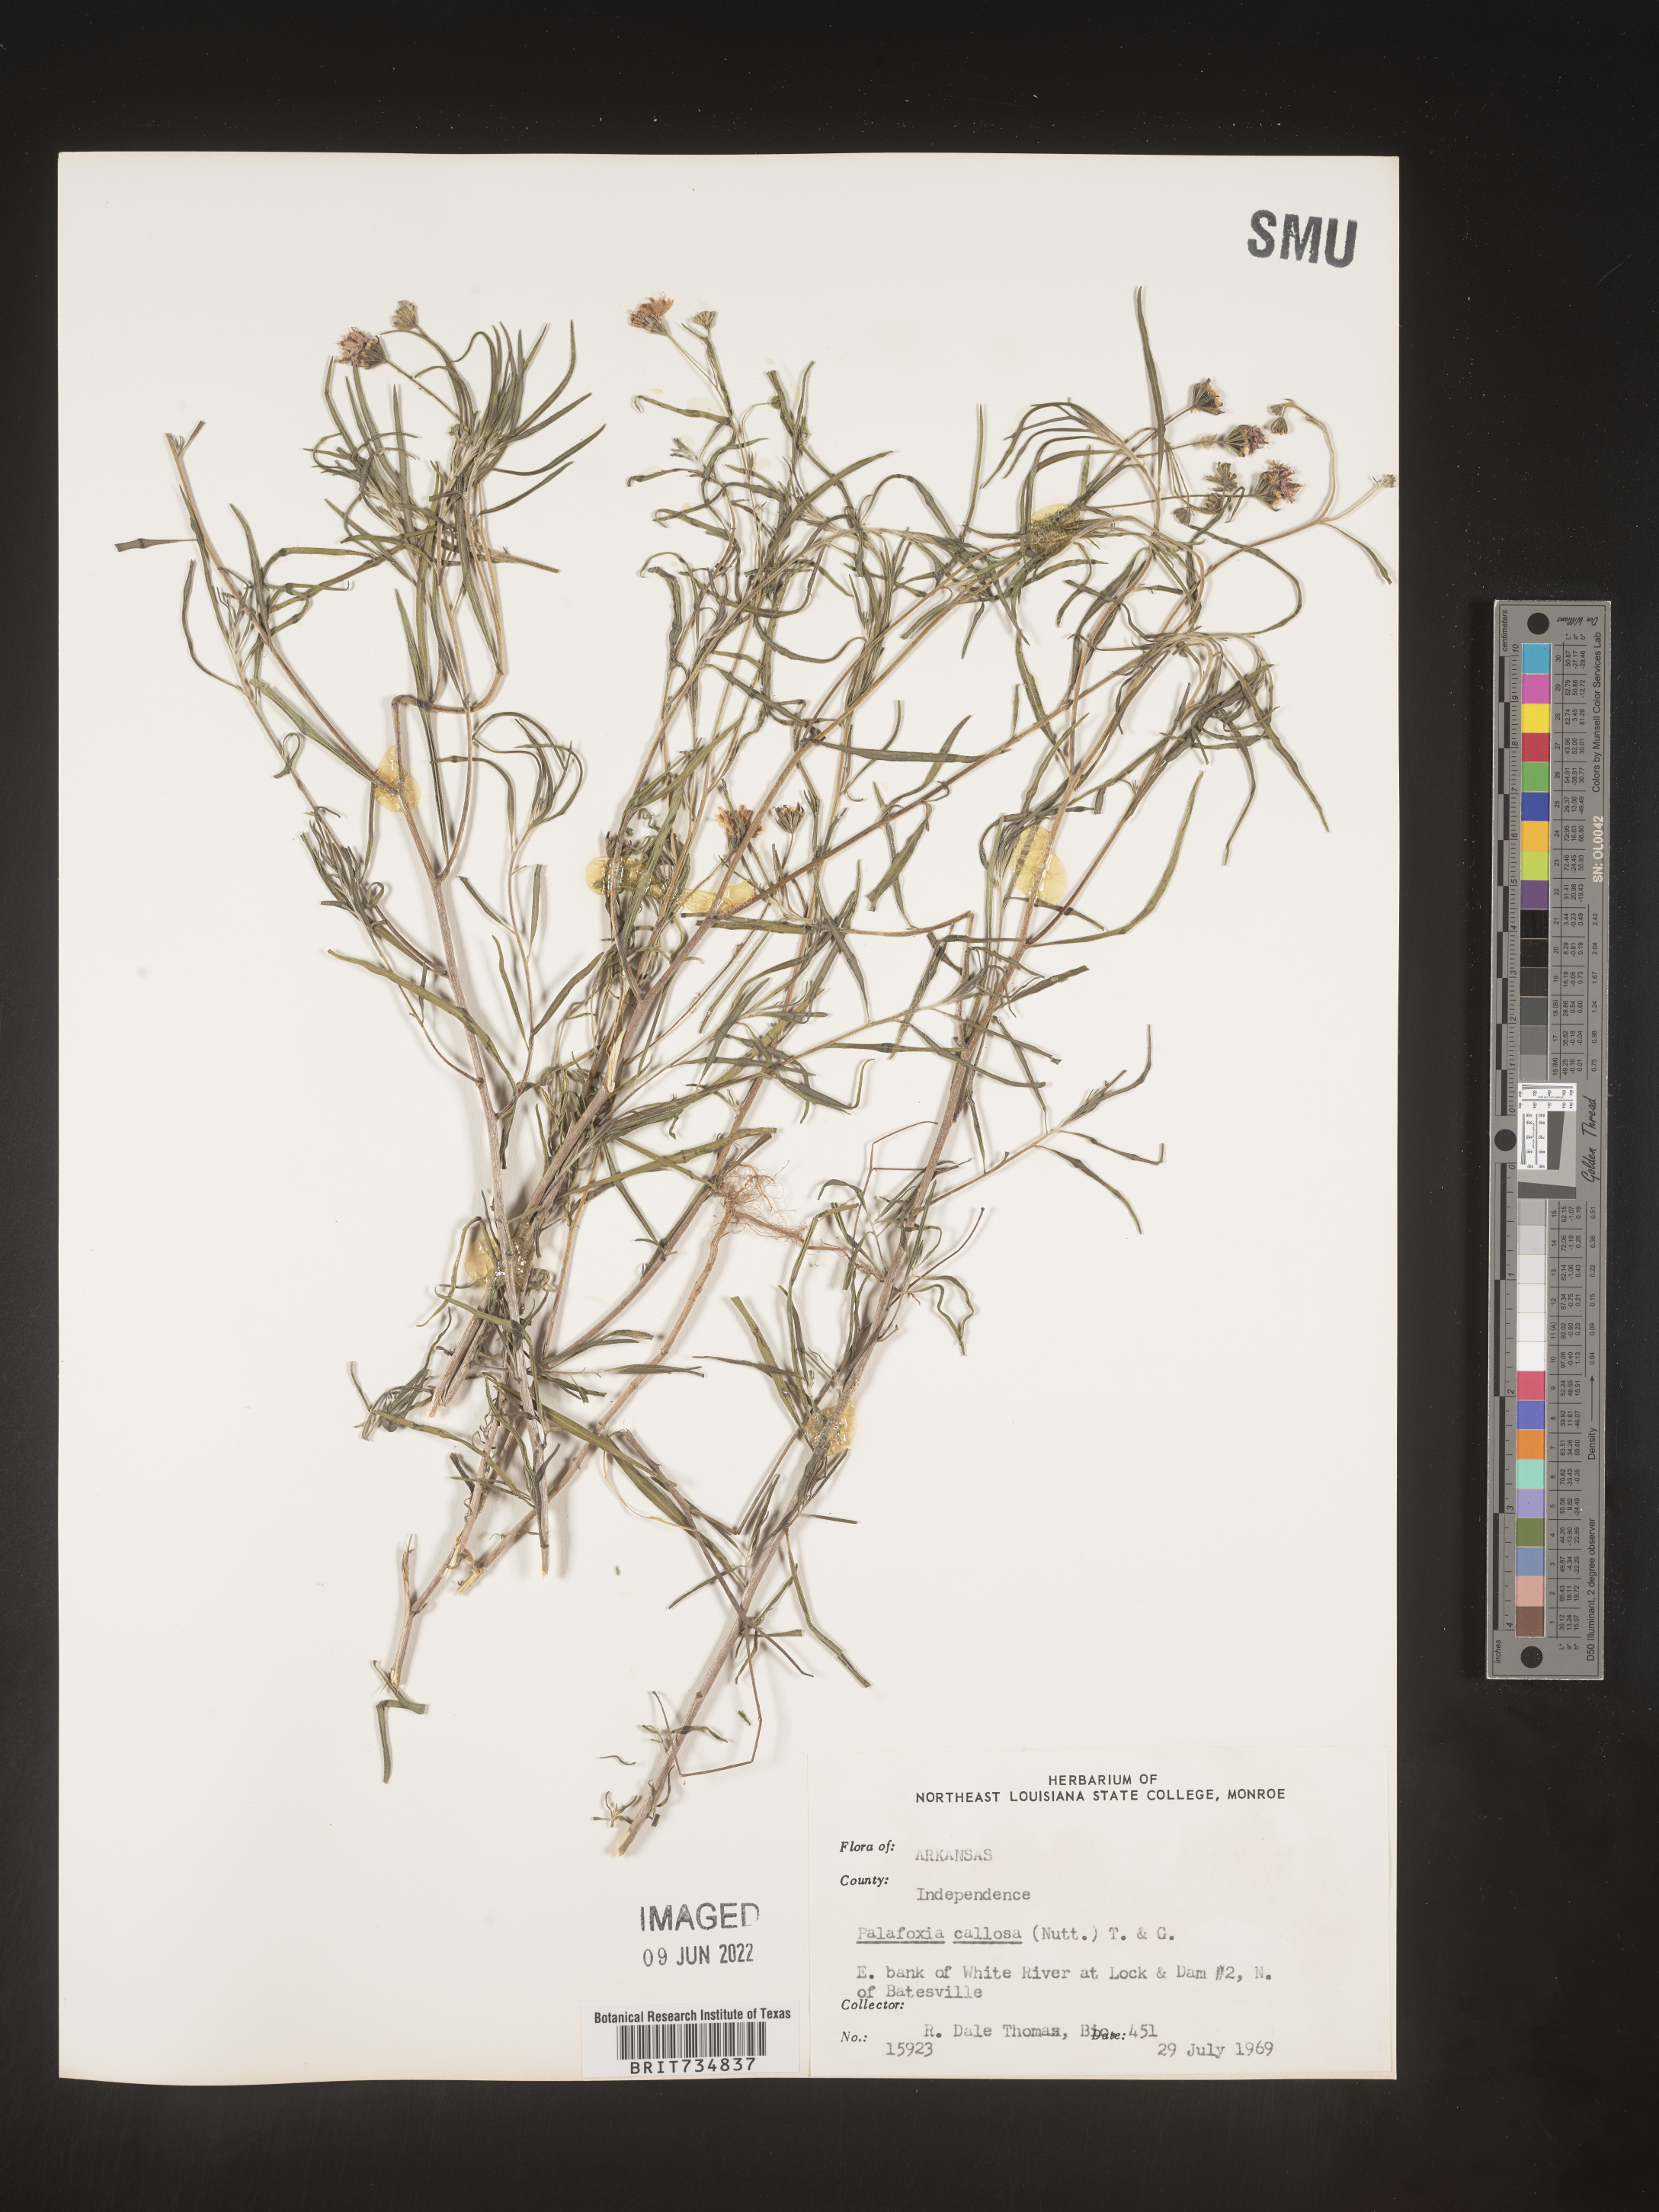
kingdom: Plantae
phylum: Tracheophyta
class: Magnoliopsida
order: Asterales
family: Asteraceae
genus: Palafoxia
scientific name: Palafoxia callosa
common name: Small palafox
